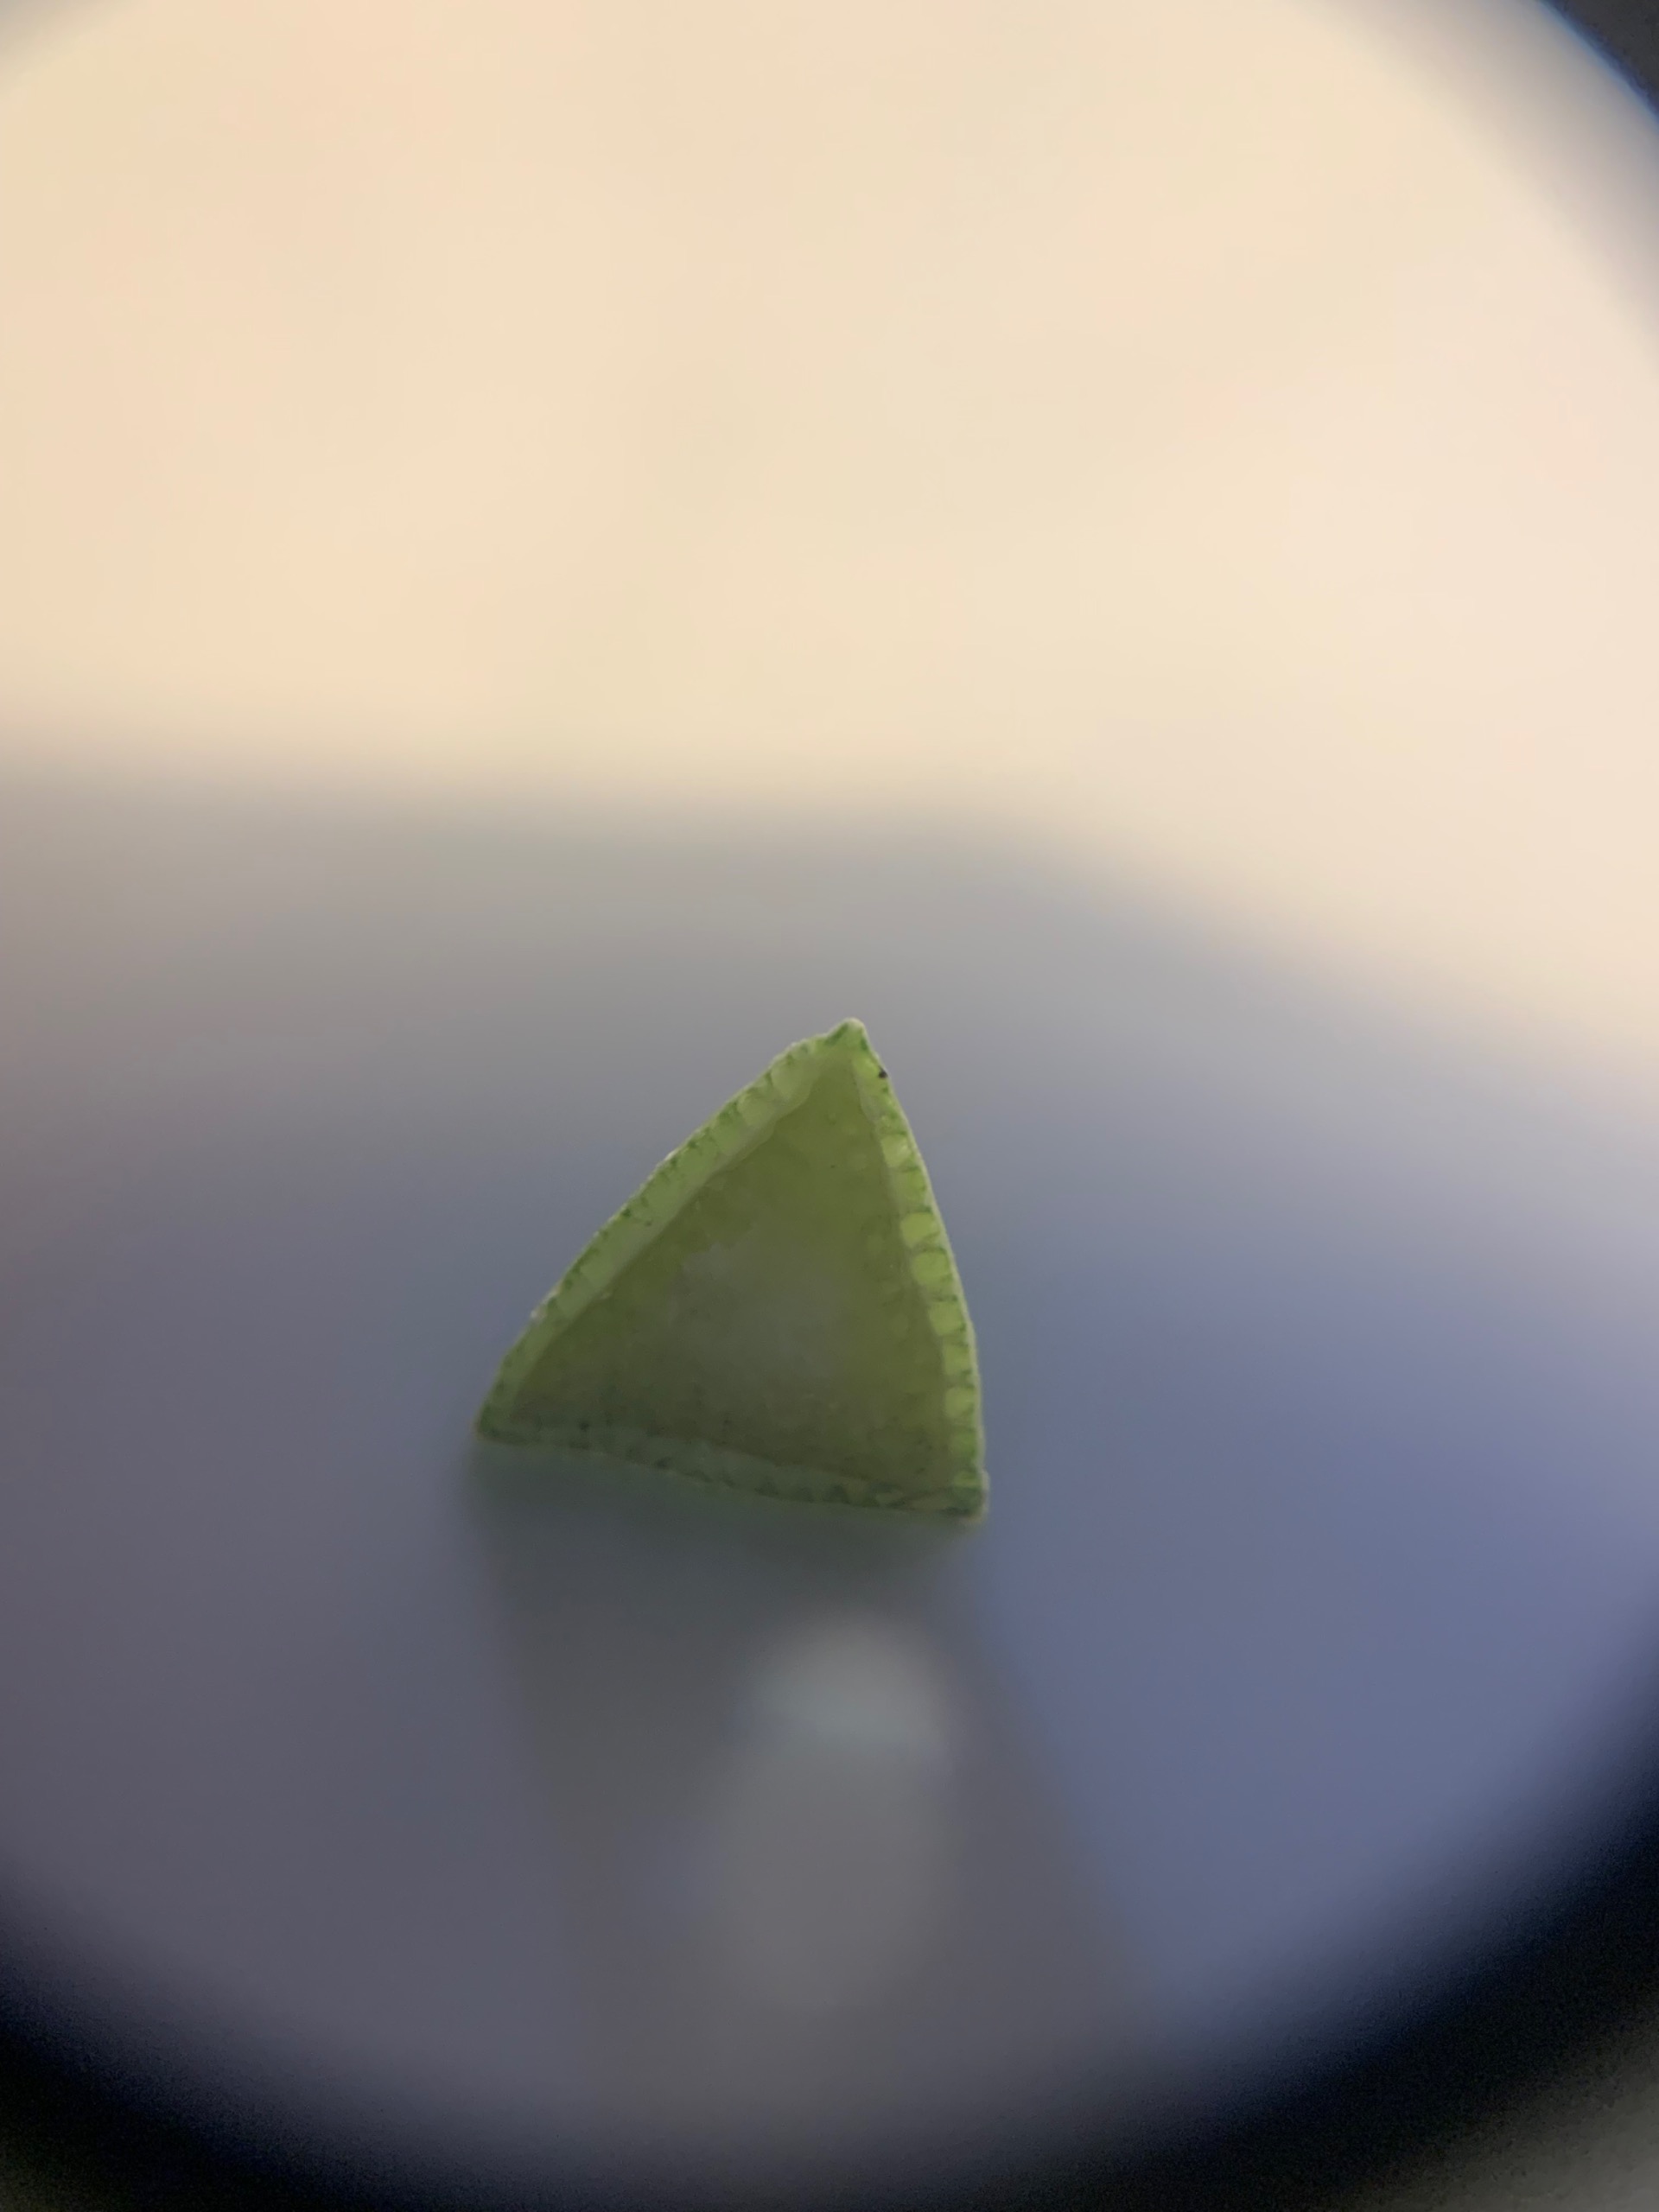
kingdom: Plantae
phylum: Tracheophyta
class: Liliopsida
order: Poales
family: Cyperaceae
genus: Bolboschoenus
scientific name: Bolboschoenus maritimus
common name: Strand-kogleaks
